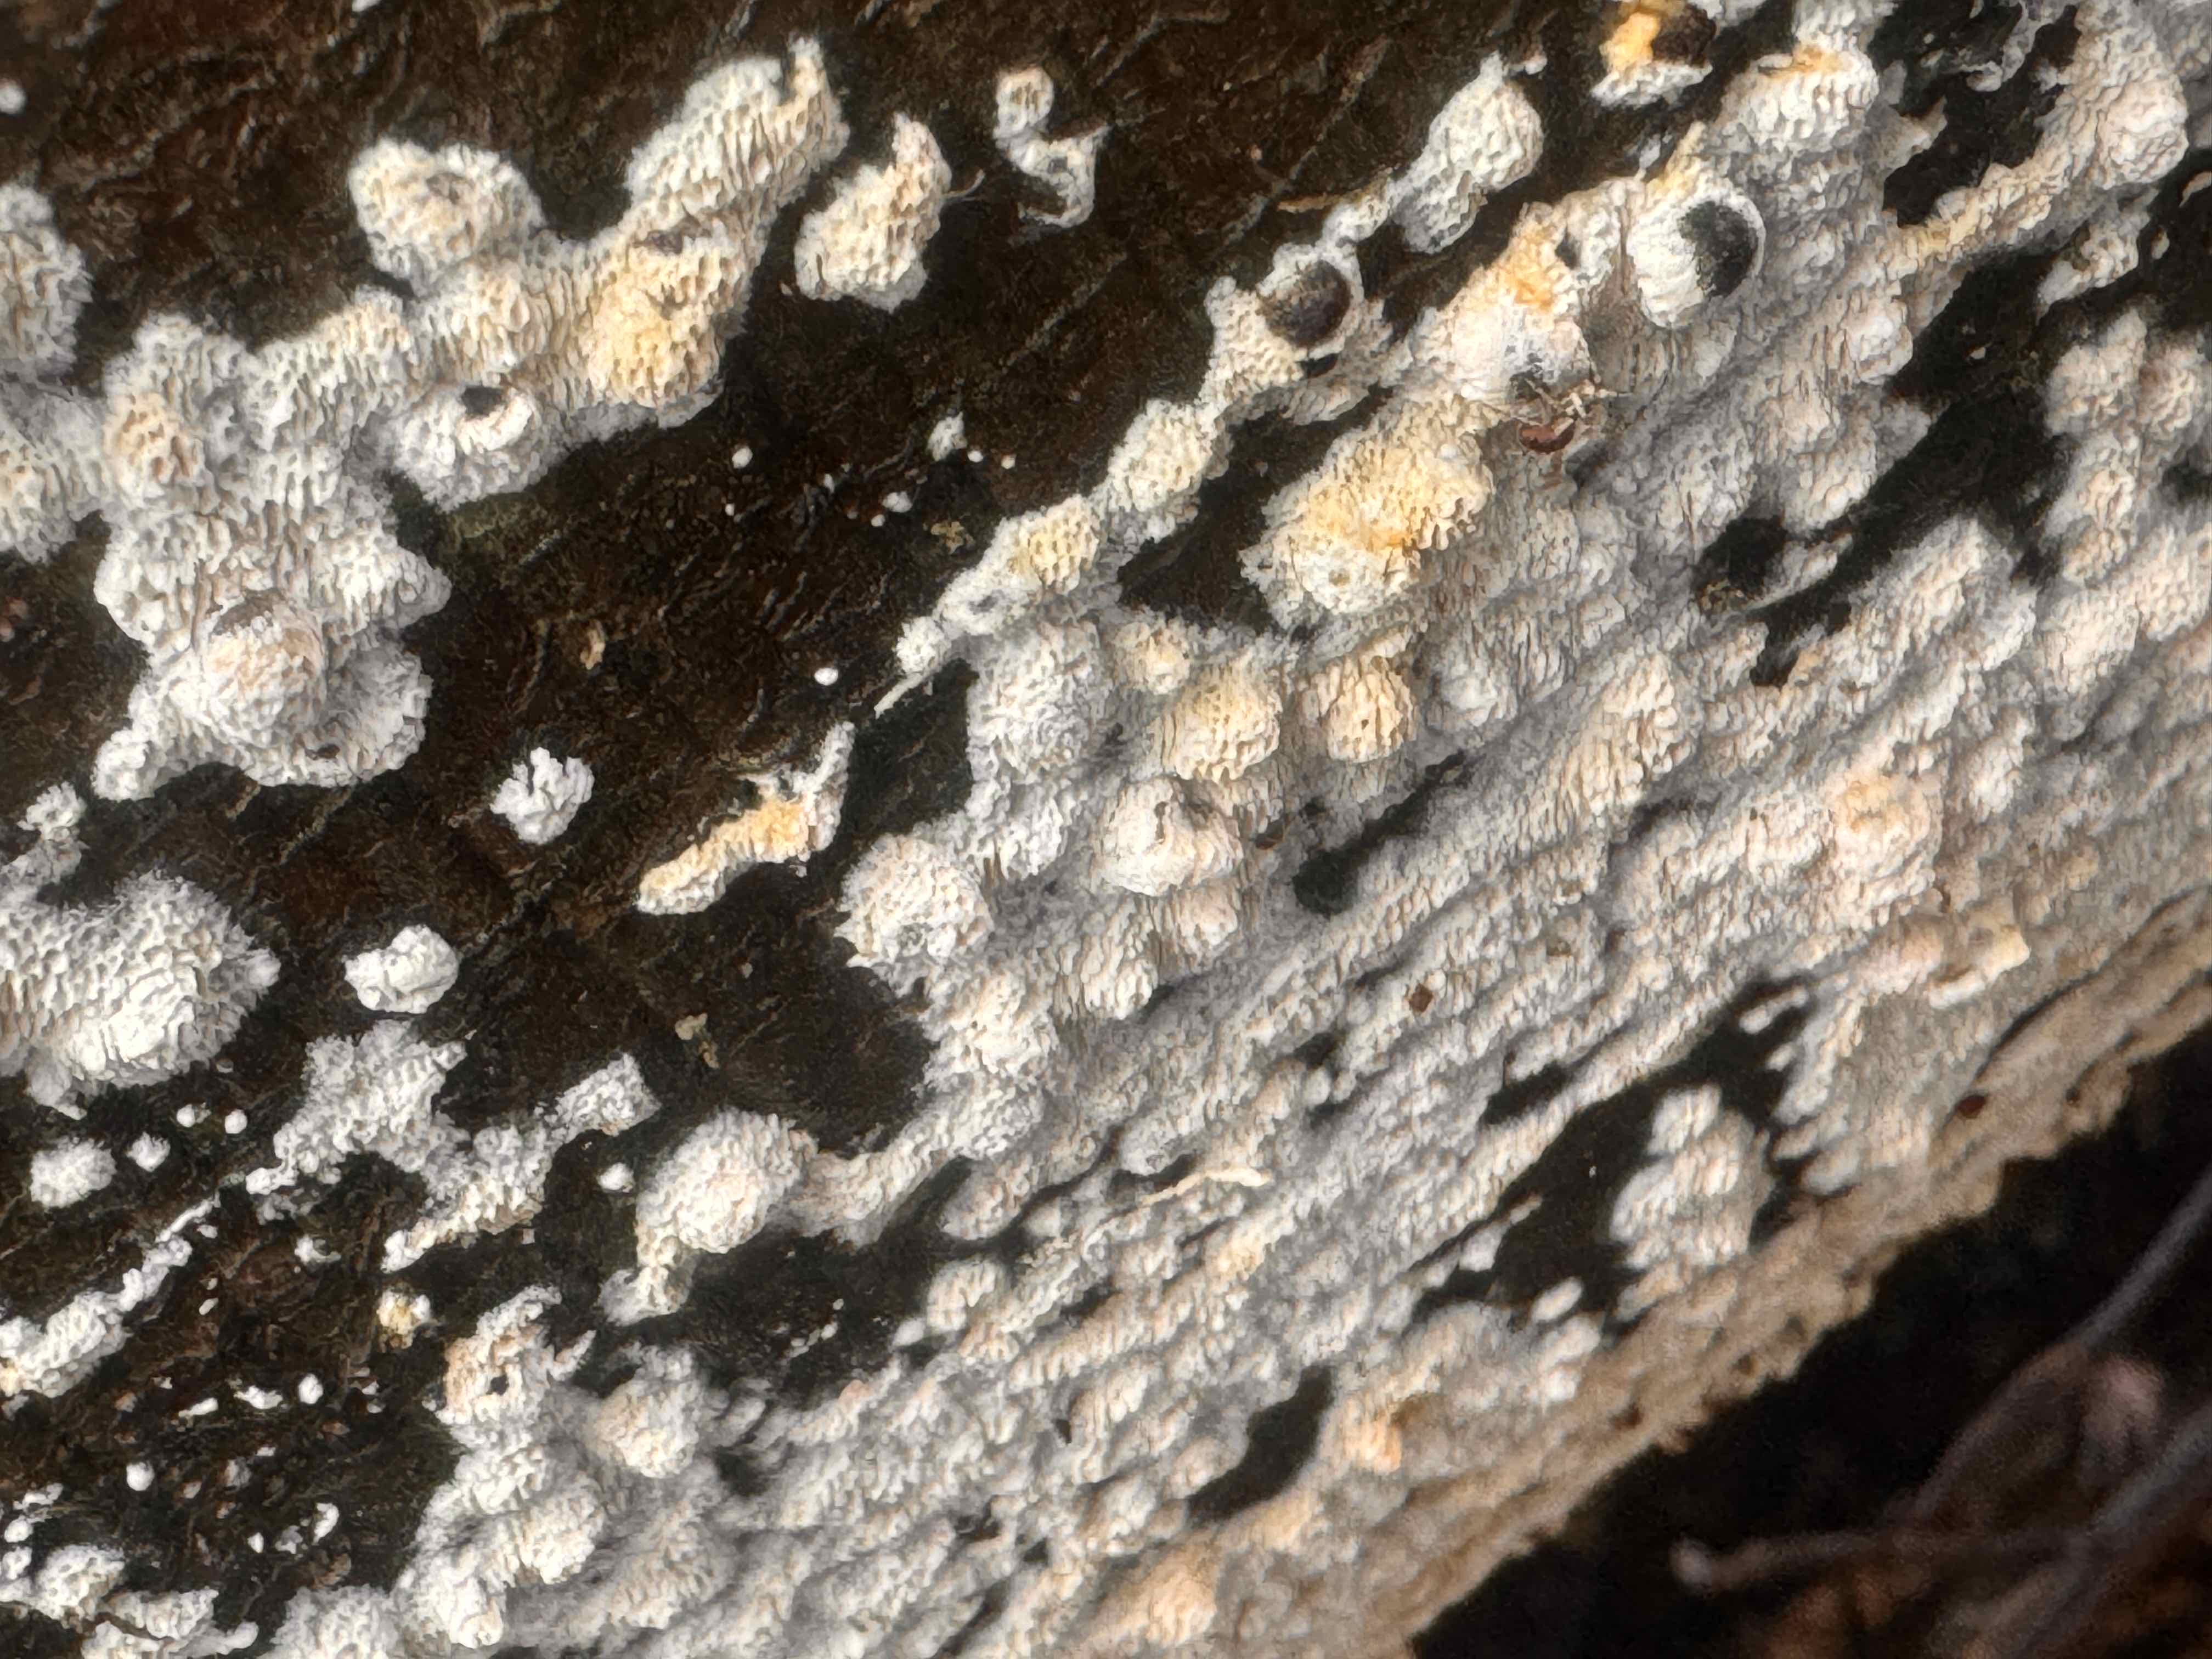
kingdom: Fungi
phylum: Basidiomycota
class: Agaricomycetes
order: Hymenochaetales
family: Schizoporaceae
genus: Xylodon
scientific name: Xylodon subtropicus
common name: labyrint-tandsvamp
